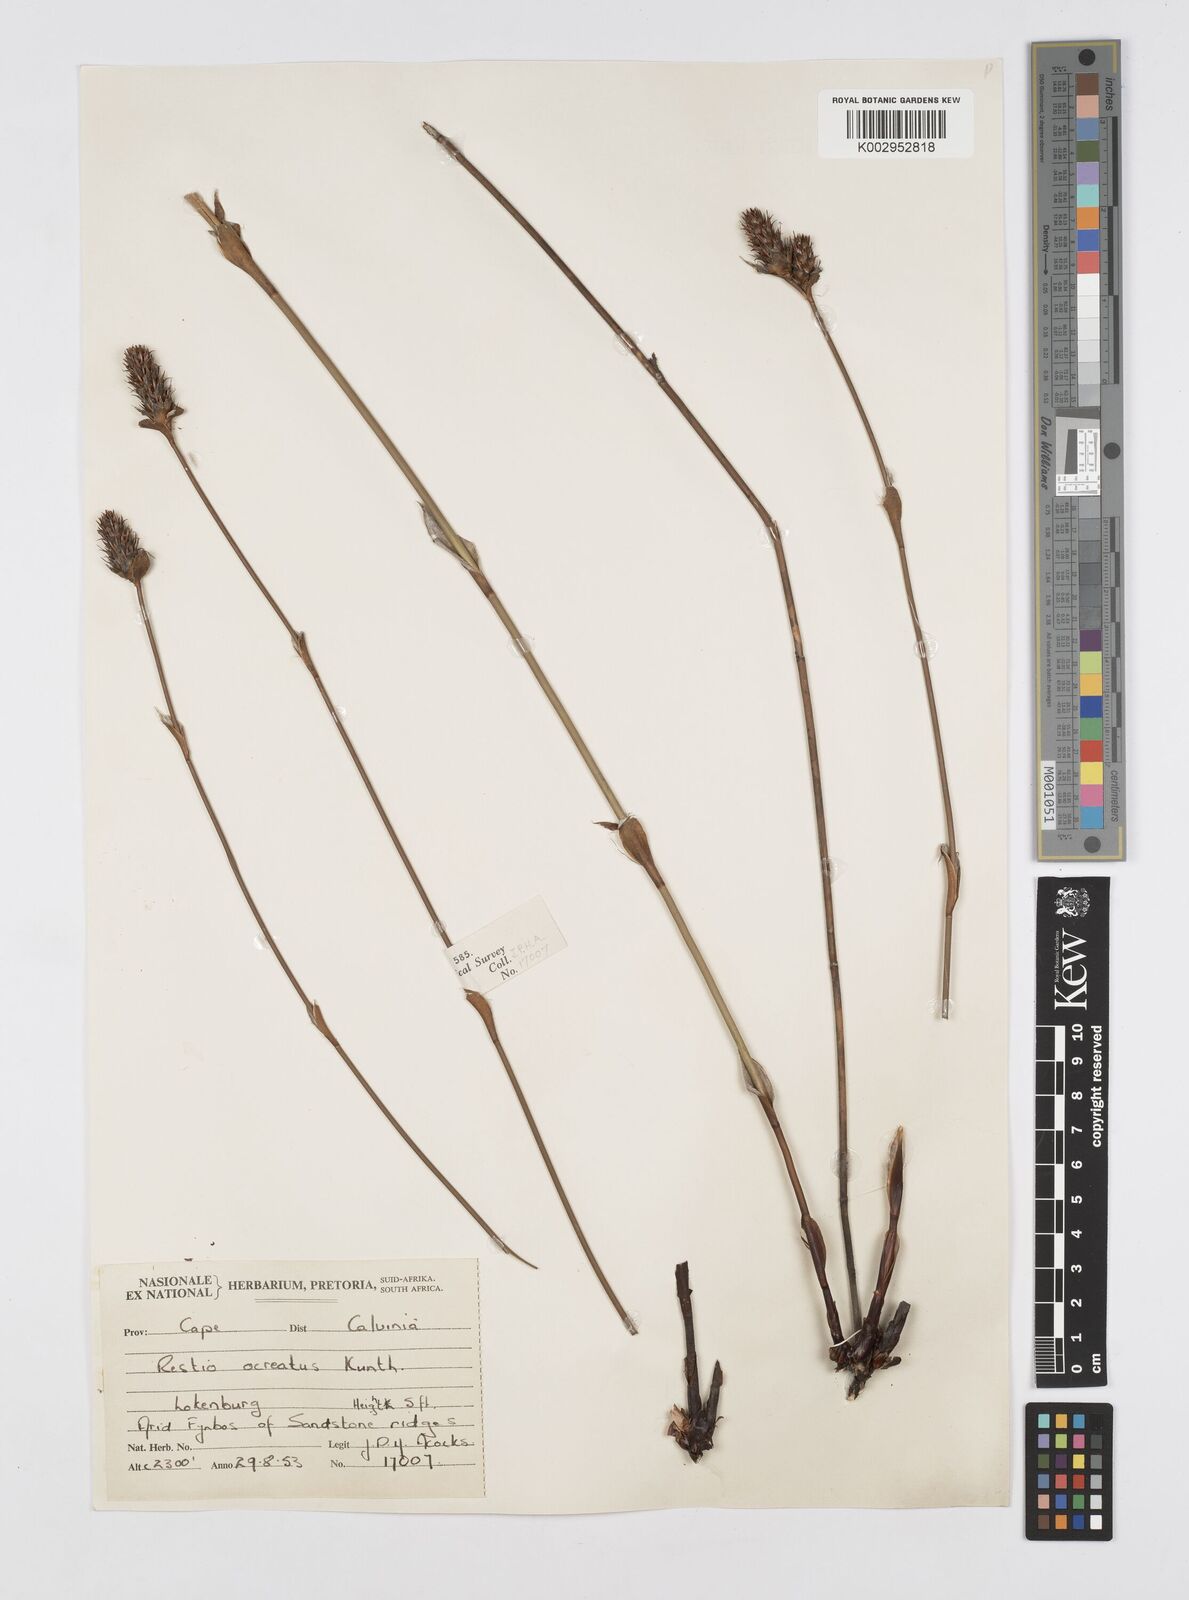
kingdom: Plantae
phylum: Tracheophyta
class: Liliopsida
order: Poales
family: Restionaceae
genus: Restio
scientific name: Restio ocreatus
